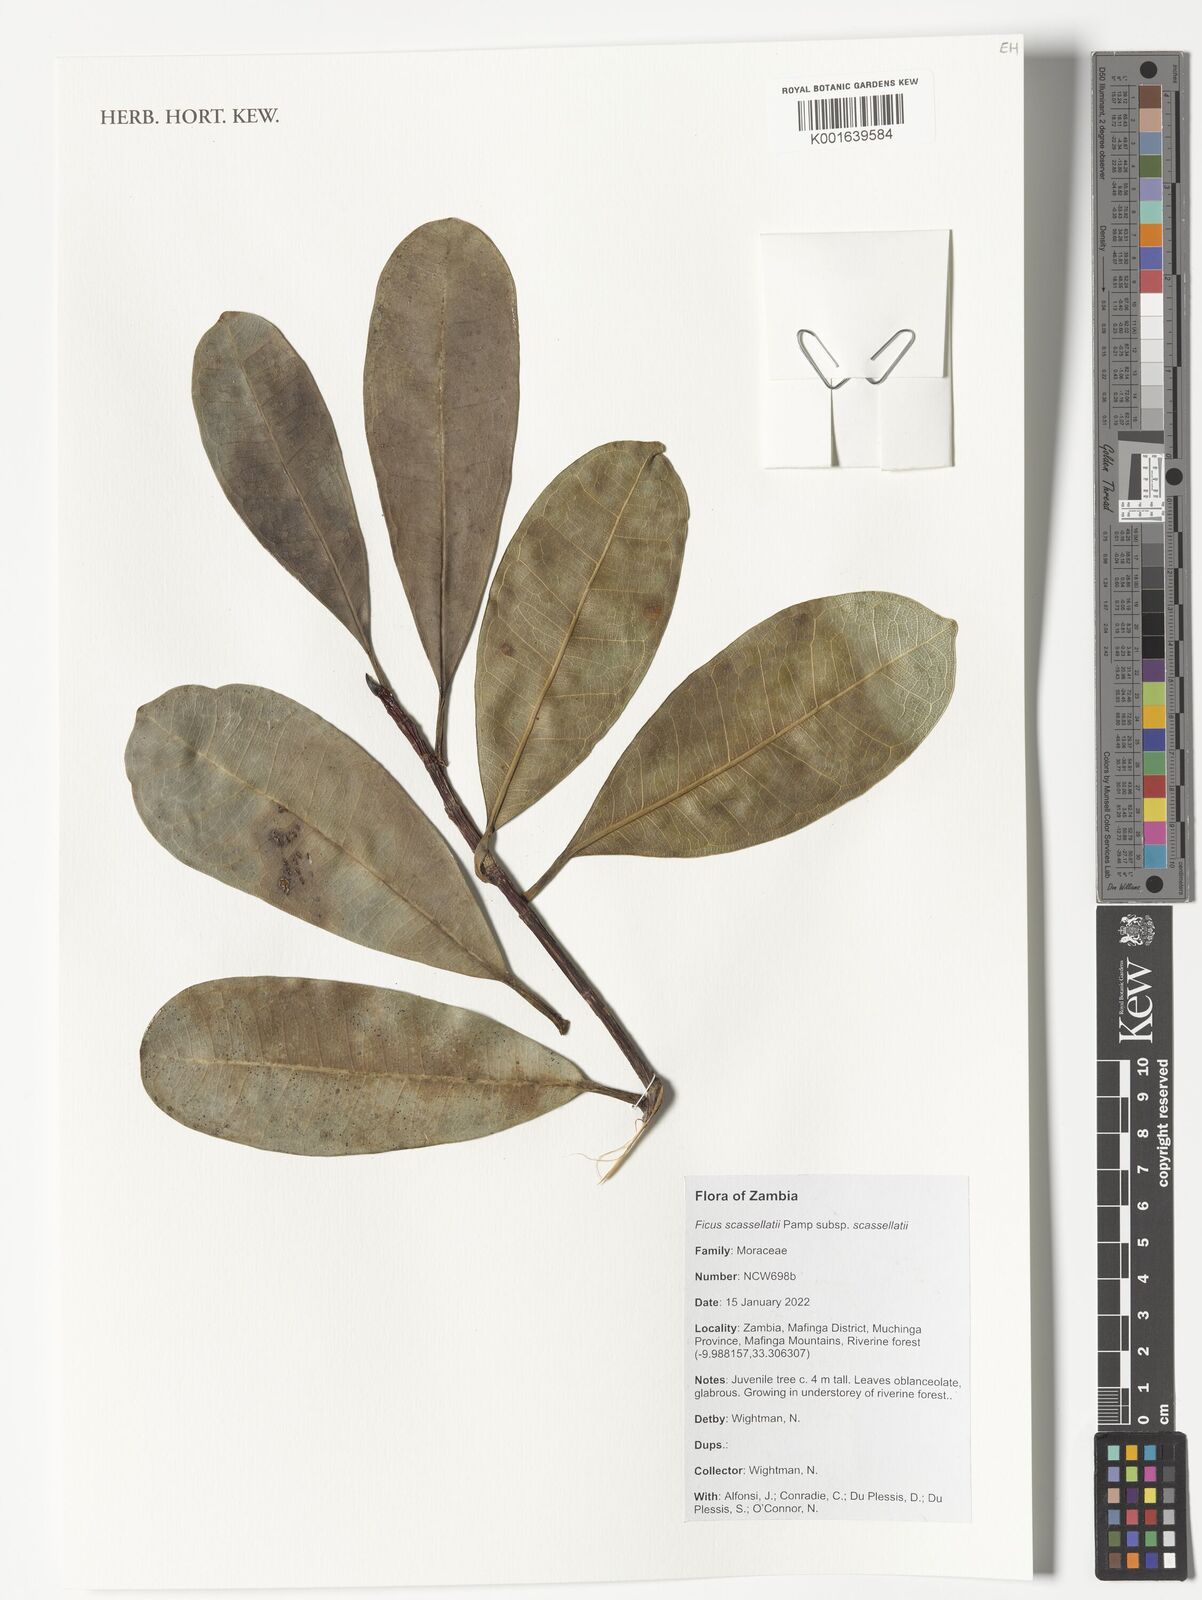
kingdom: Plantae
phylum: Tracheophyta
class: Magnoliopsida
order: Rosales
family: Moraceae
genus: Ficus
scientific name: Ficus scassellatii
